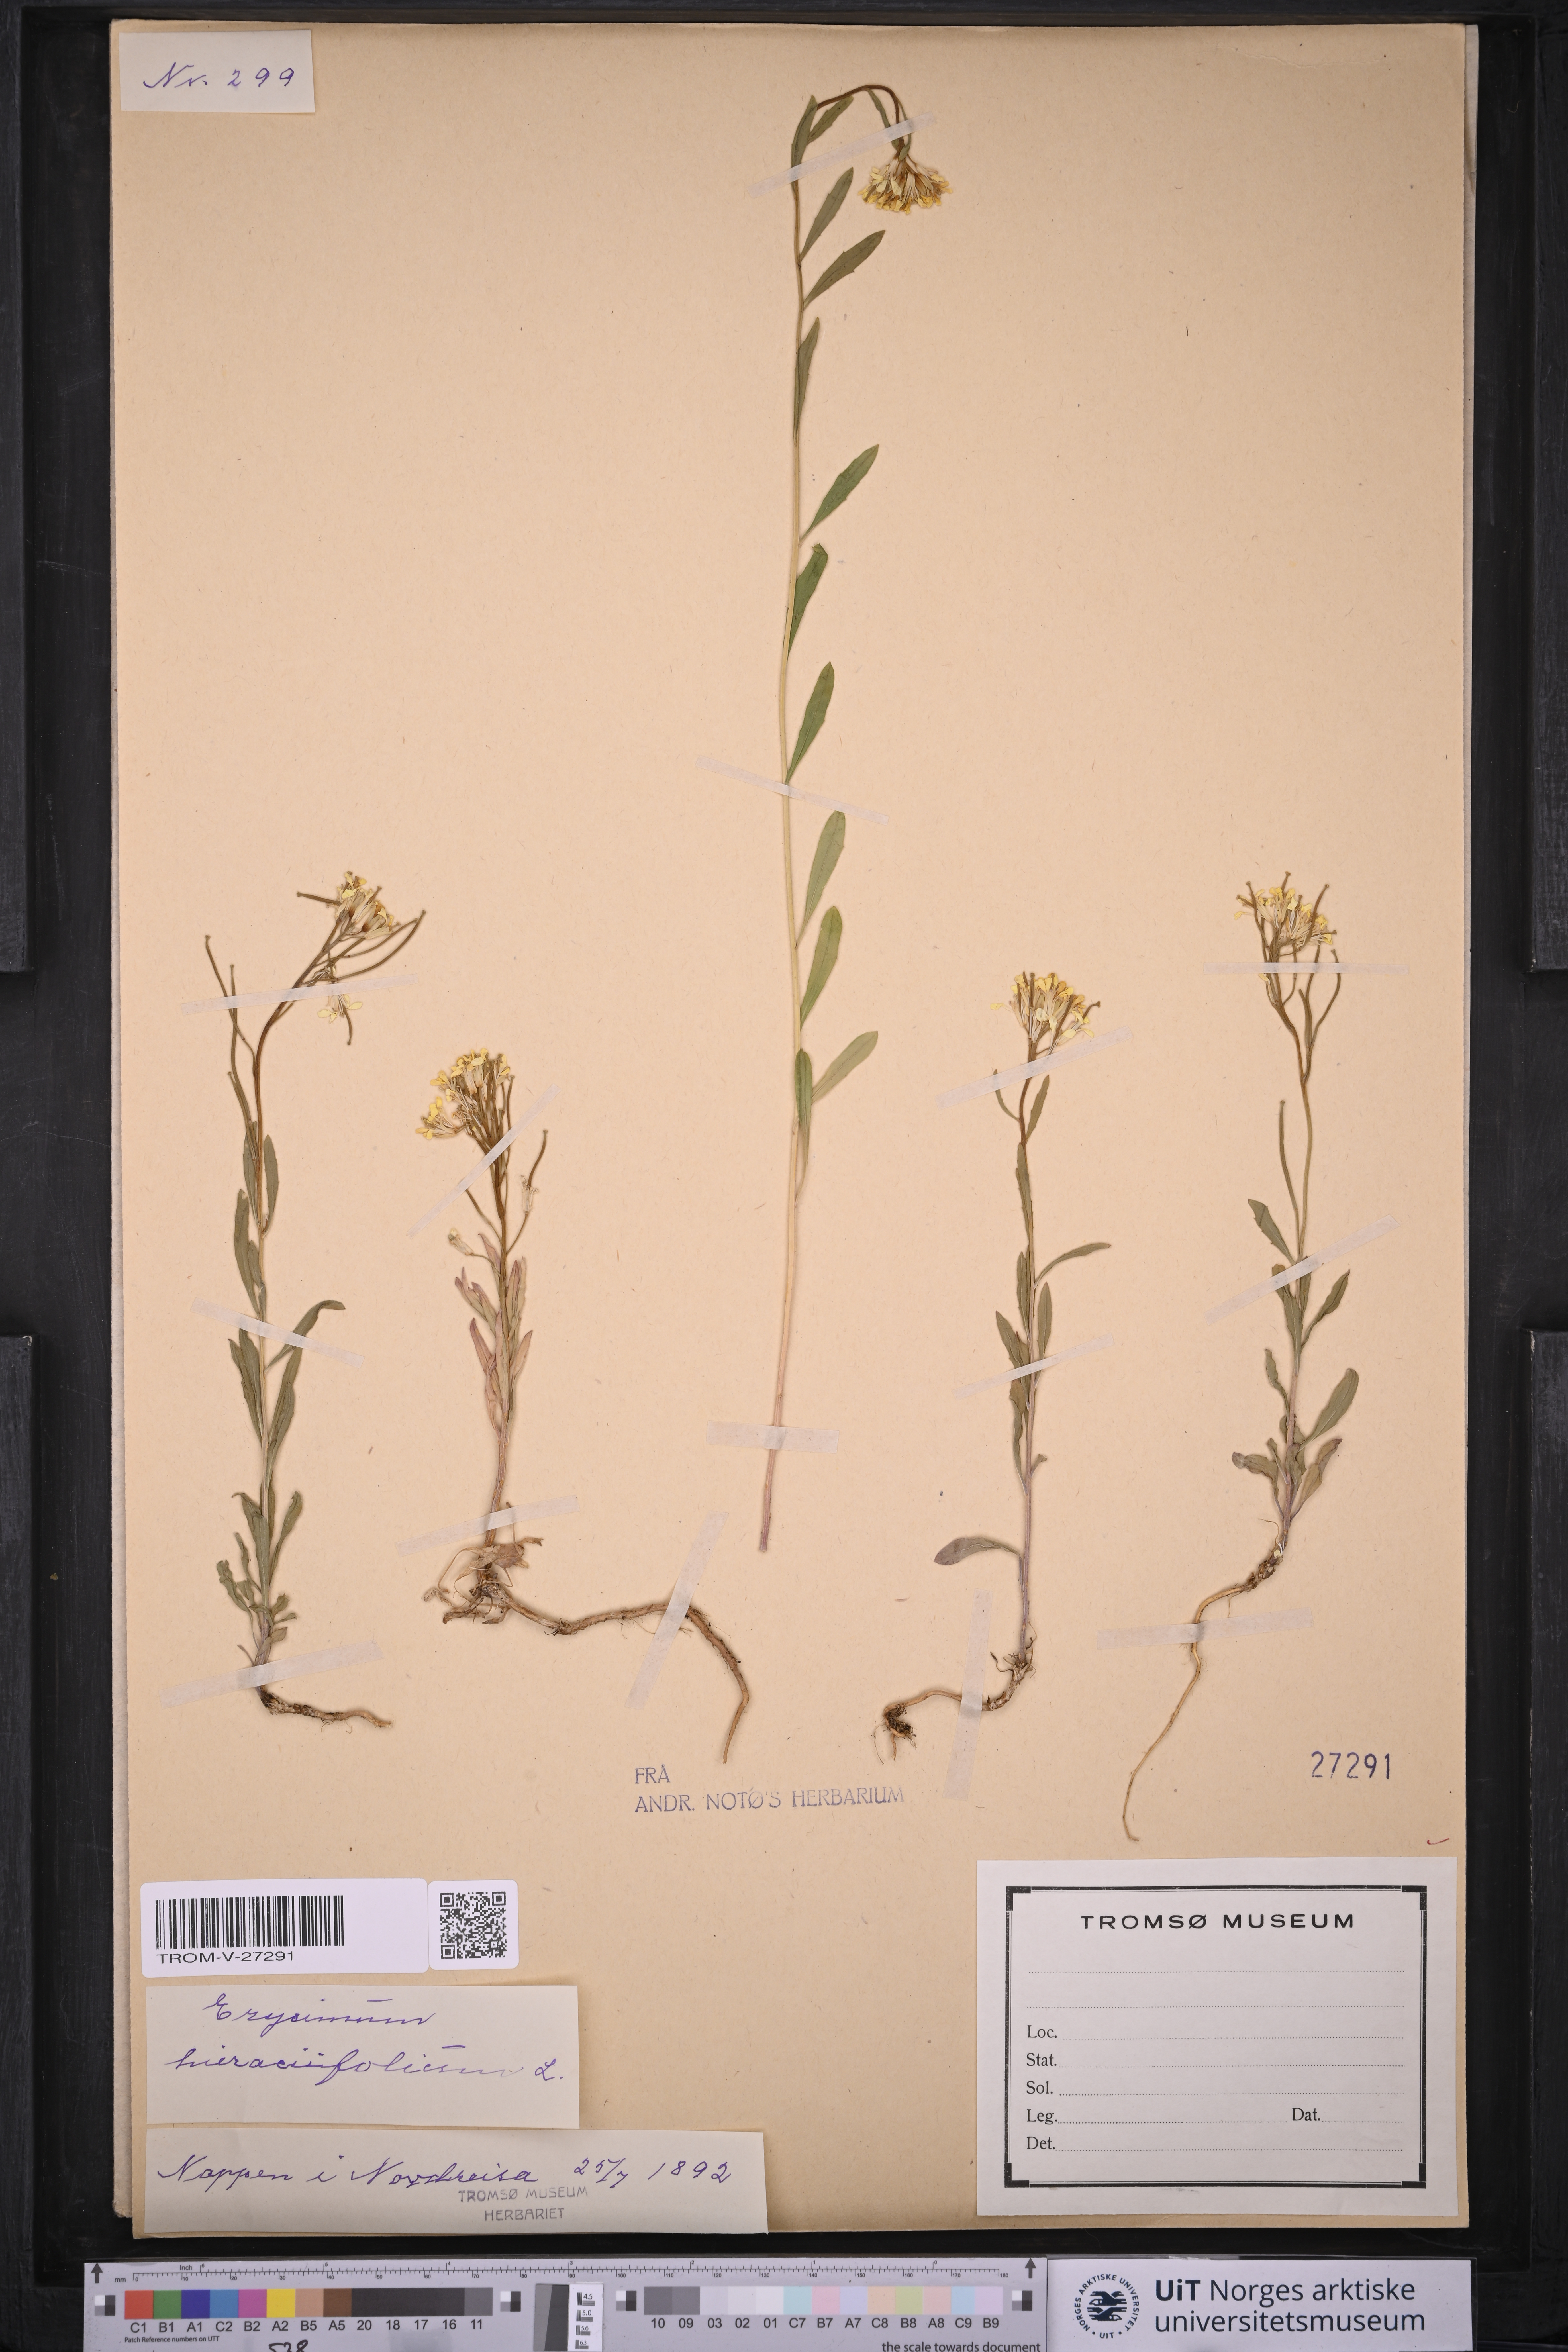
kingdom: Plantae
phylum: Tracheophyta
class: Magnoliopsida
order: Brassicales
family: Brassicaceae
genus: Erysimum
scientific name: Erysimum virgatum
